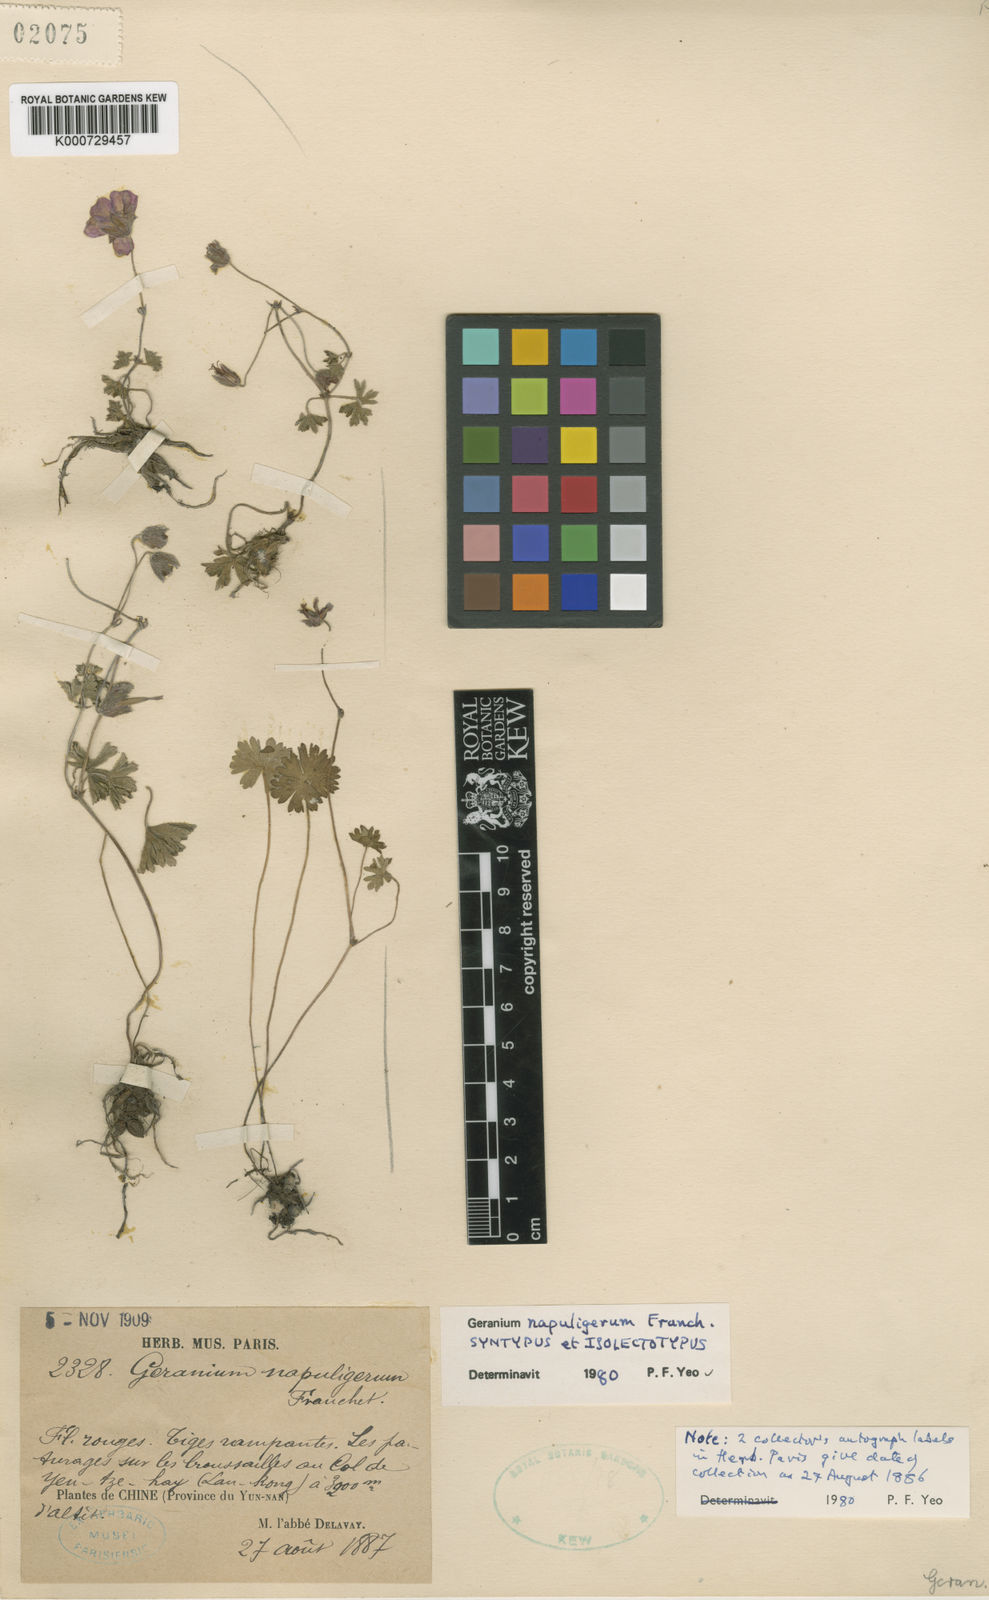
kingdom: Plantae
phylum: Tracheophyta
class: Magnoliopsida
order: Geraniales
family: Geraniaceae
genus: Geranium
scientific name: Geranium napuligerum
